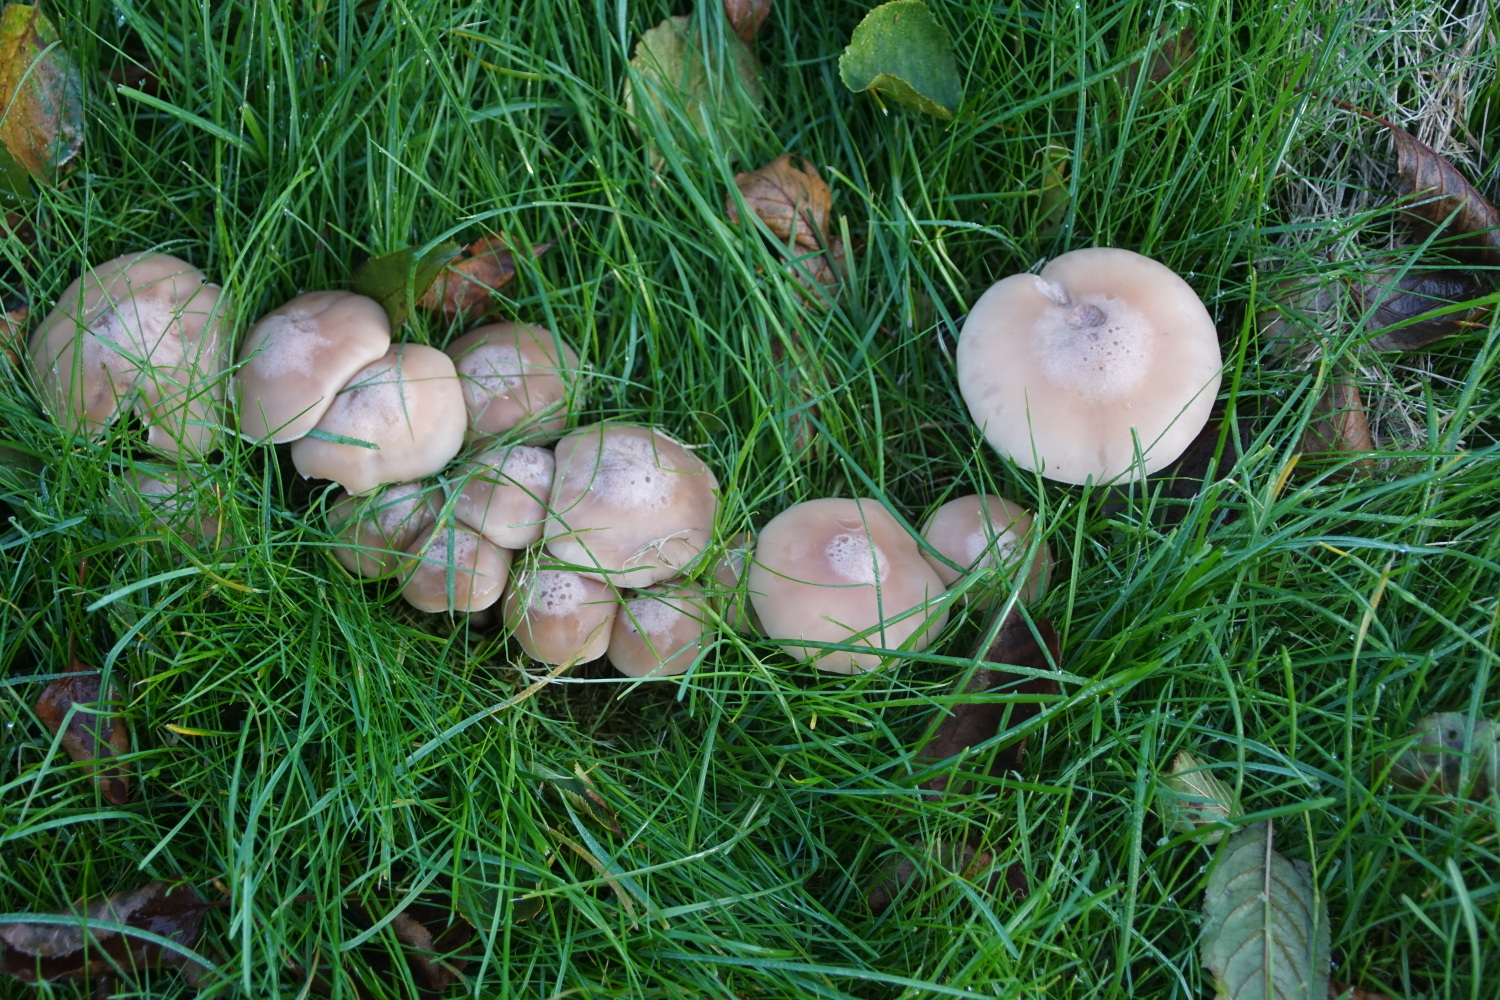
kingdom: Fungi
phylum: Basidiomycota
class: Agaricomycetes
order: Agaricales
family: Tricholomataceae
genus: Lepista
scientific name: Lepista
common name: hekseringshat
